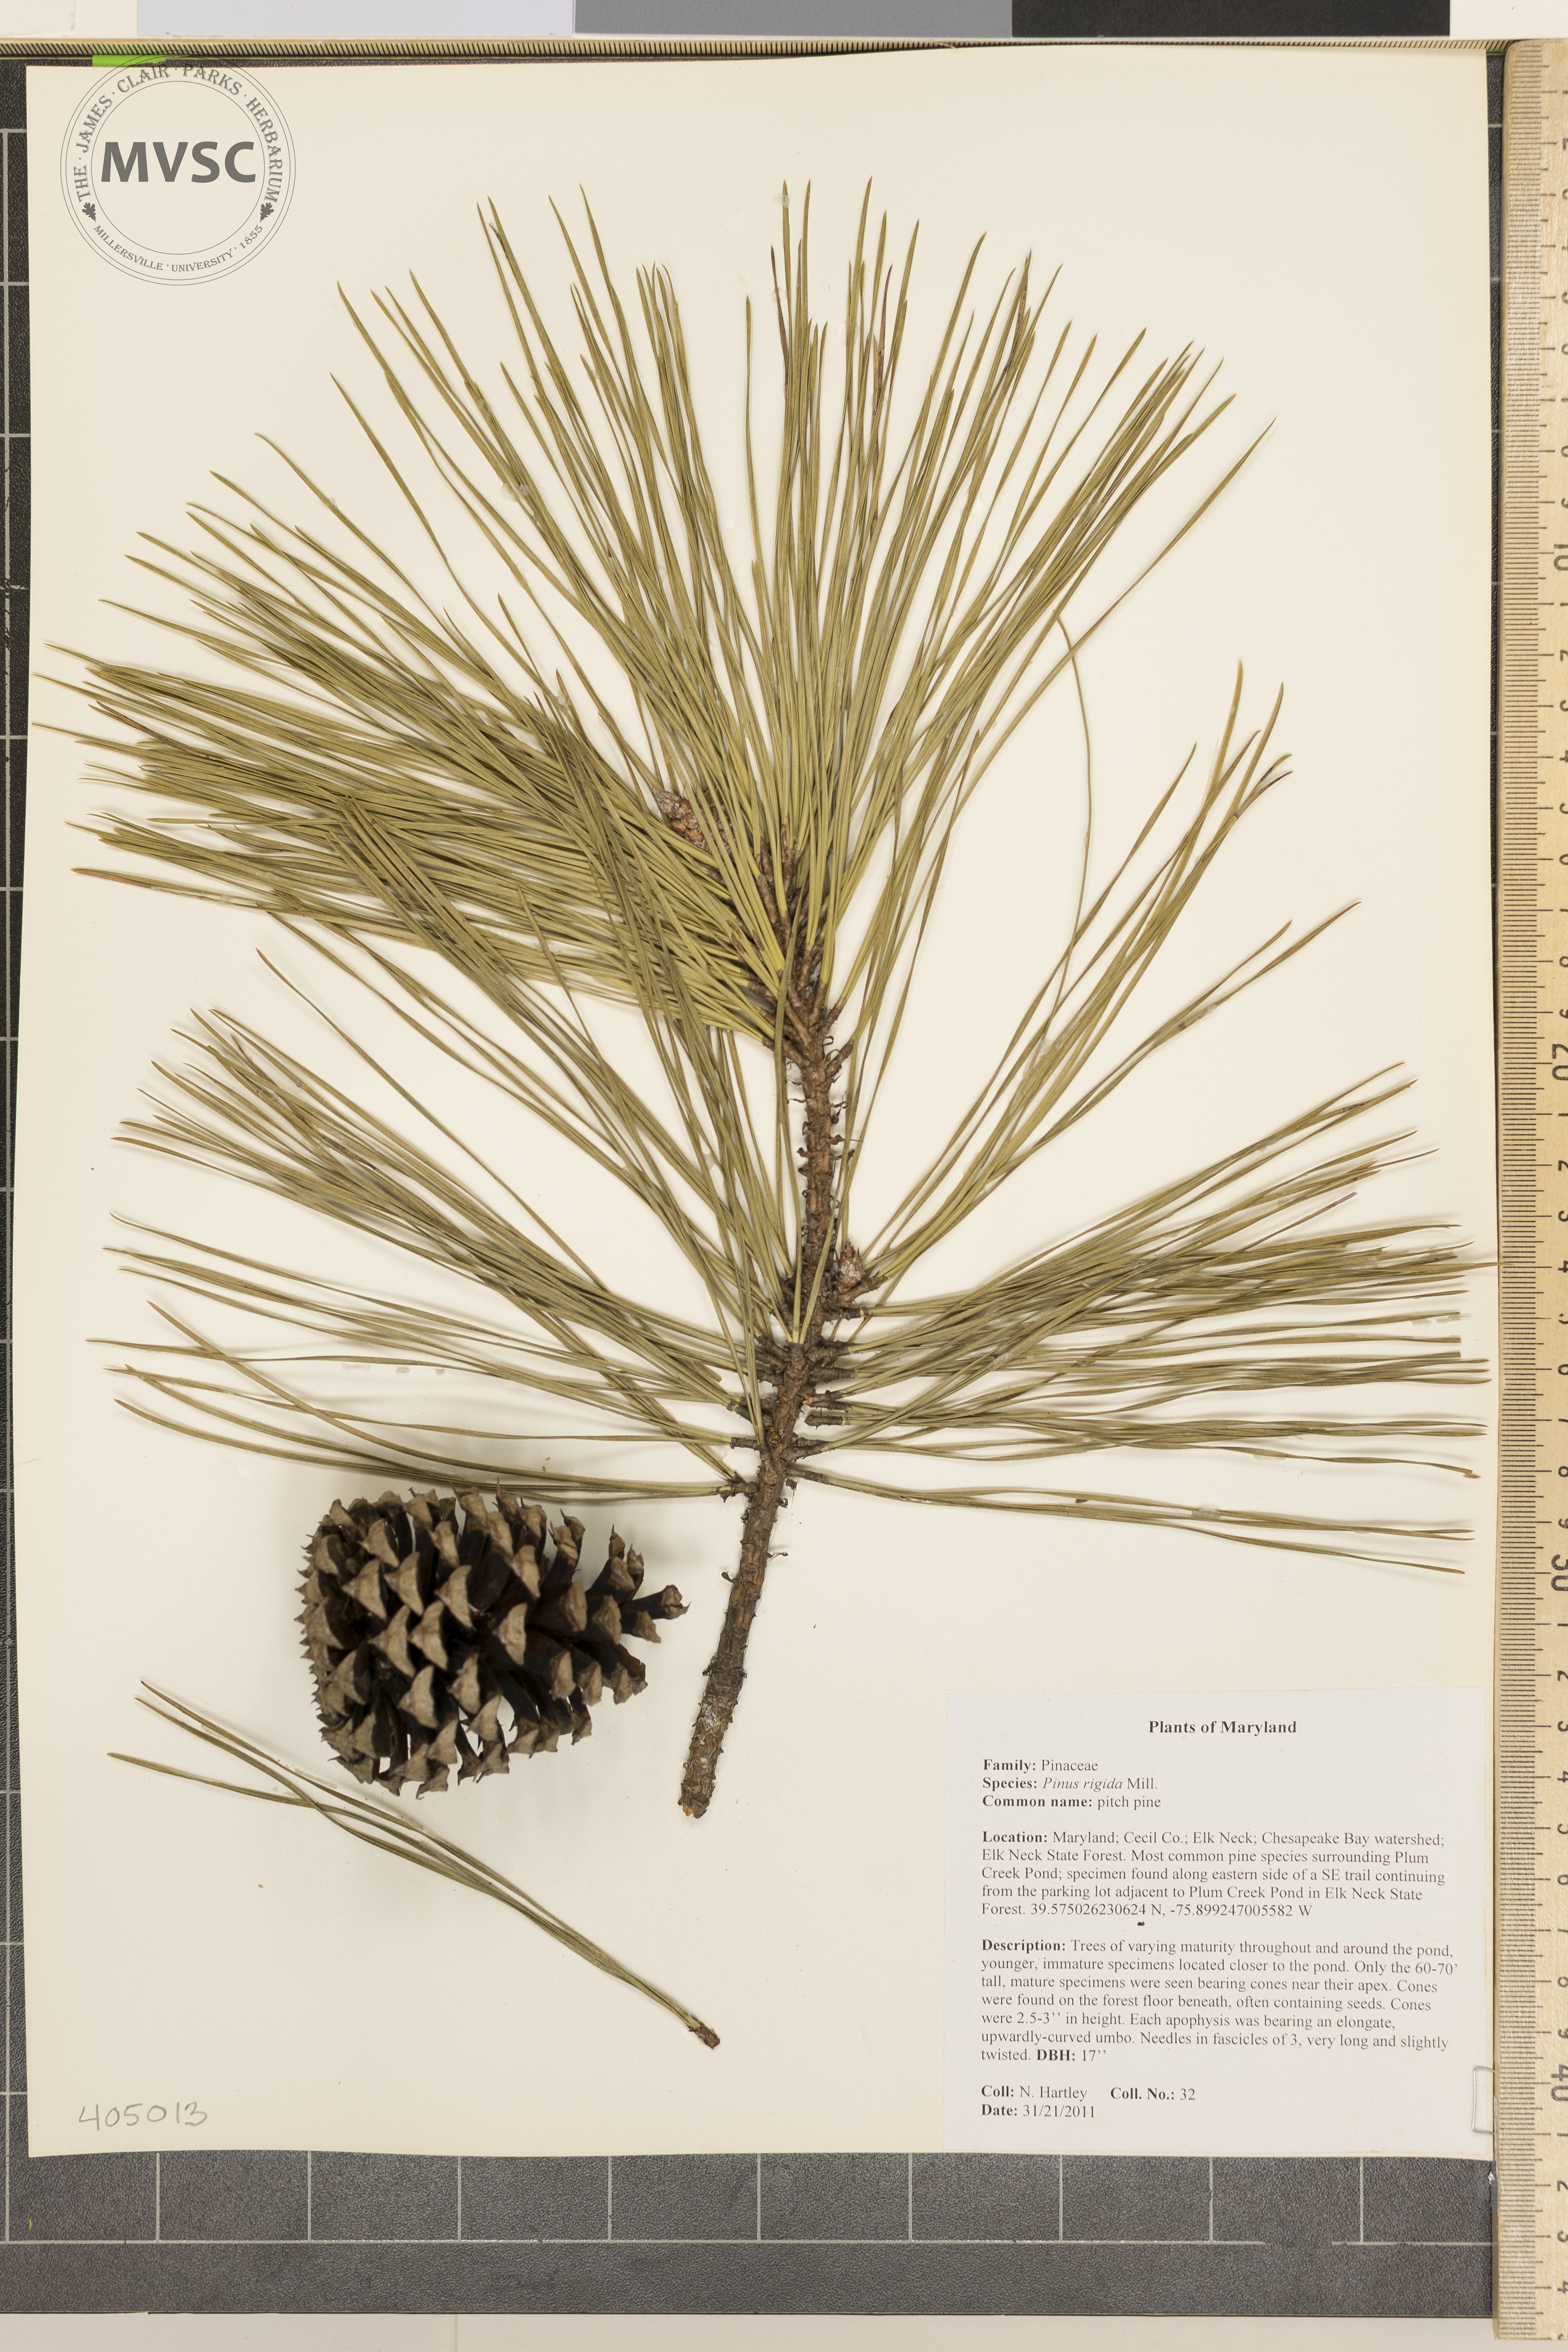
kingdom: Plantae
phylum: Tracheophyta
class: Pinopsida
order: Pinales
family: Pinaceae
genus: Pinus
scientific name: Pinus rigida
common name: pitch pine
